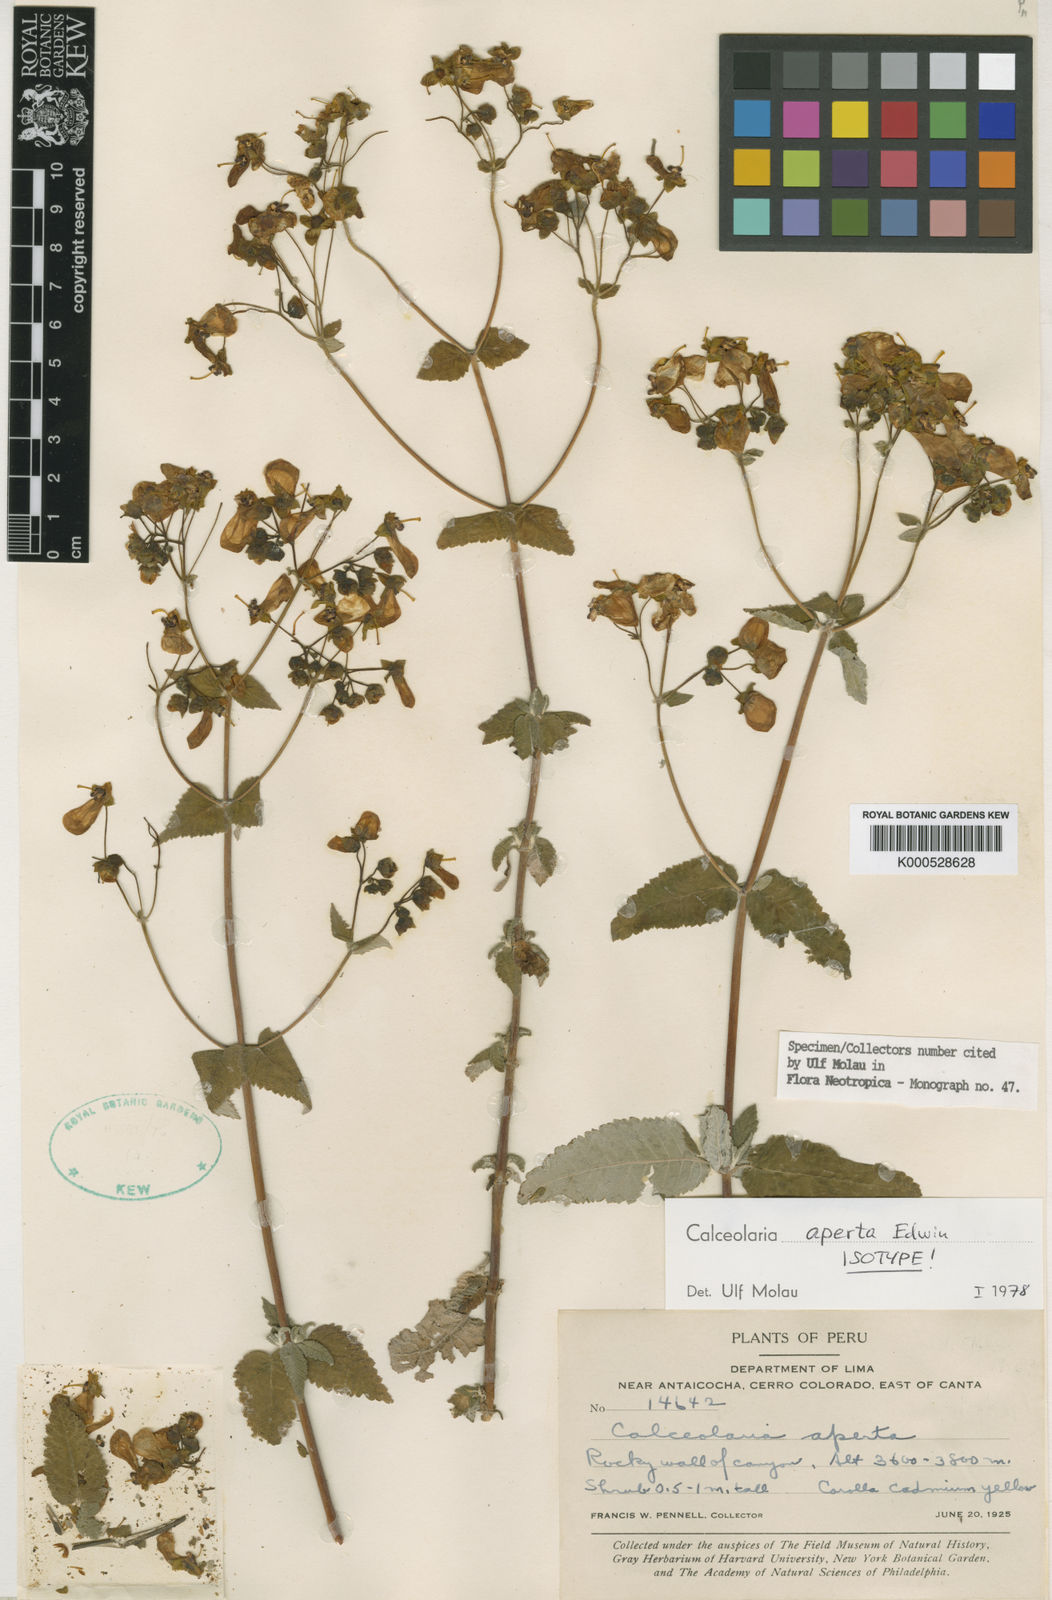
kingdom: Plantae
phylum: Tracheophyta
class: Magnoliopsida
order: Lamiales
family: Calceolariaceae
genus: Calceolaria
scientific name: Calceolaria aperta
